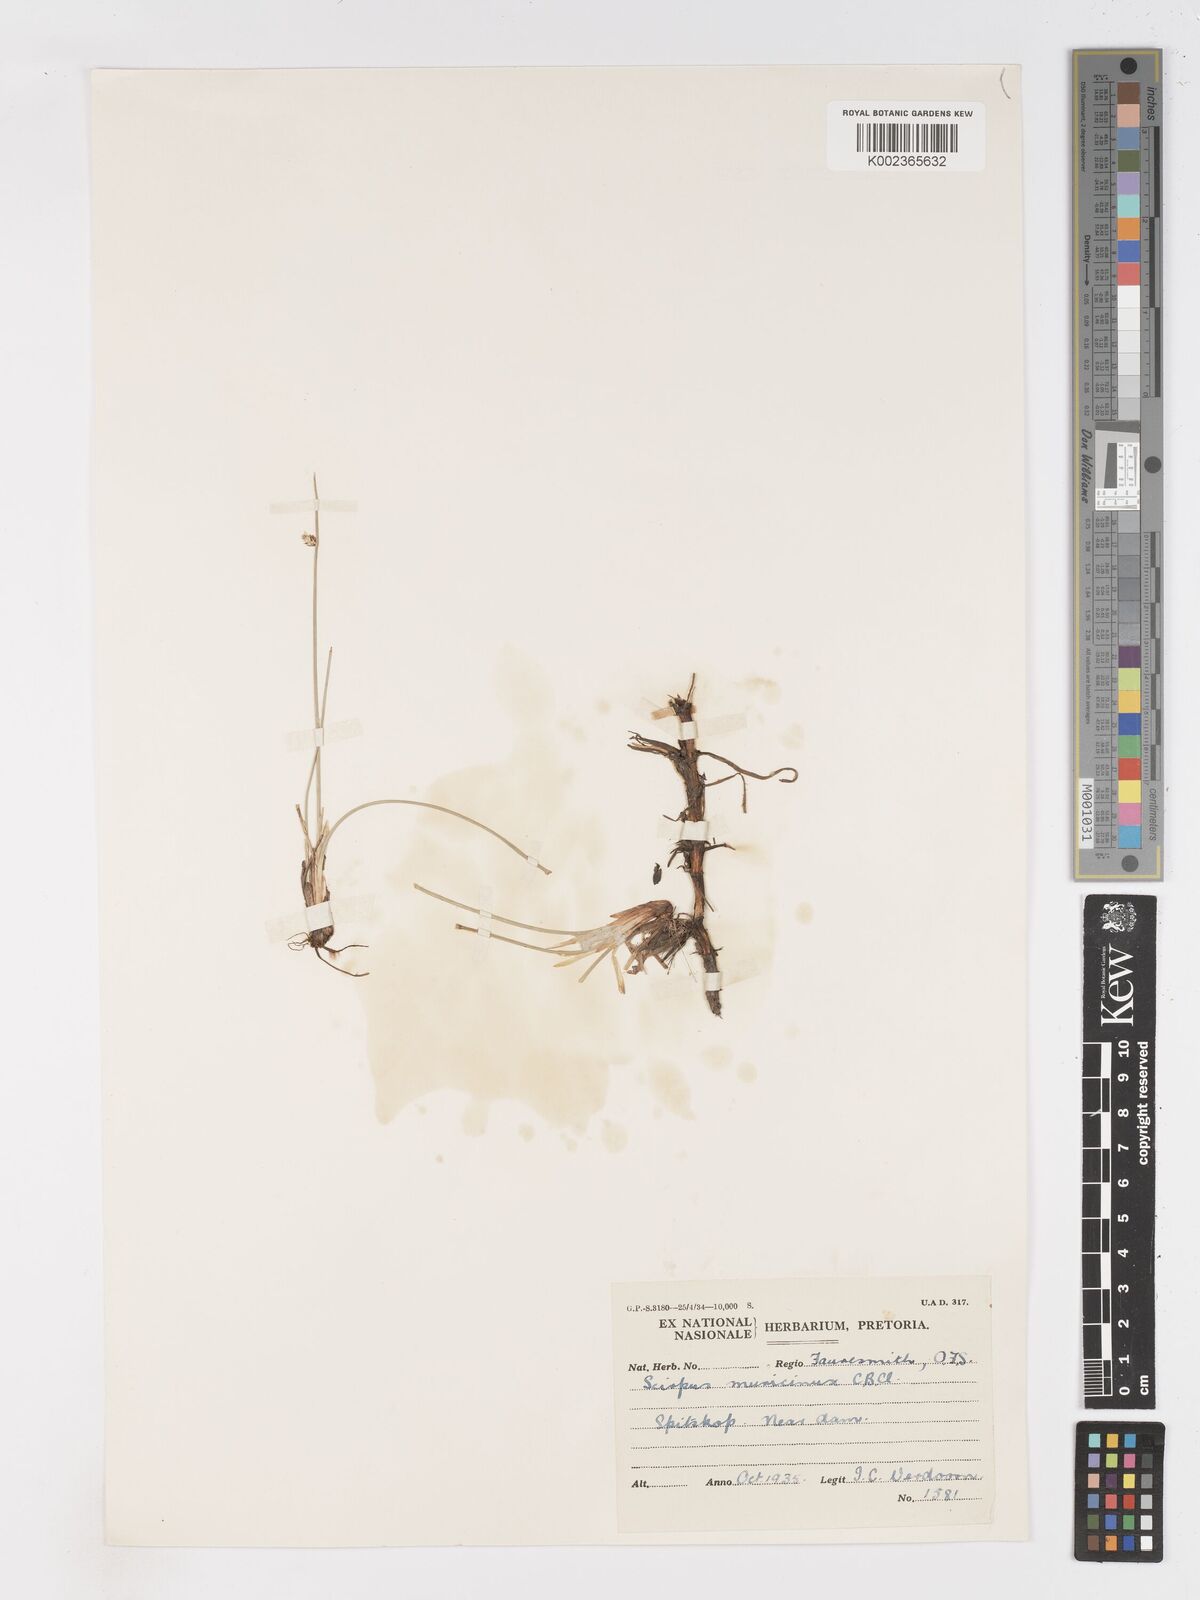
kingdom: Plantae
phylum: Tracheophyta
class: Liliopsida
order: Poales
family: Cyperaceae
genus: Schoenoplectus
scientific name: Schoenoplectus
